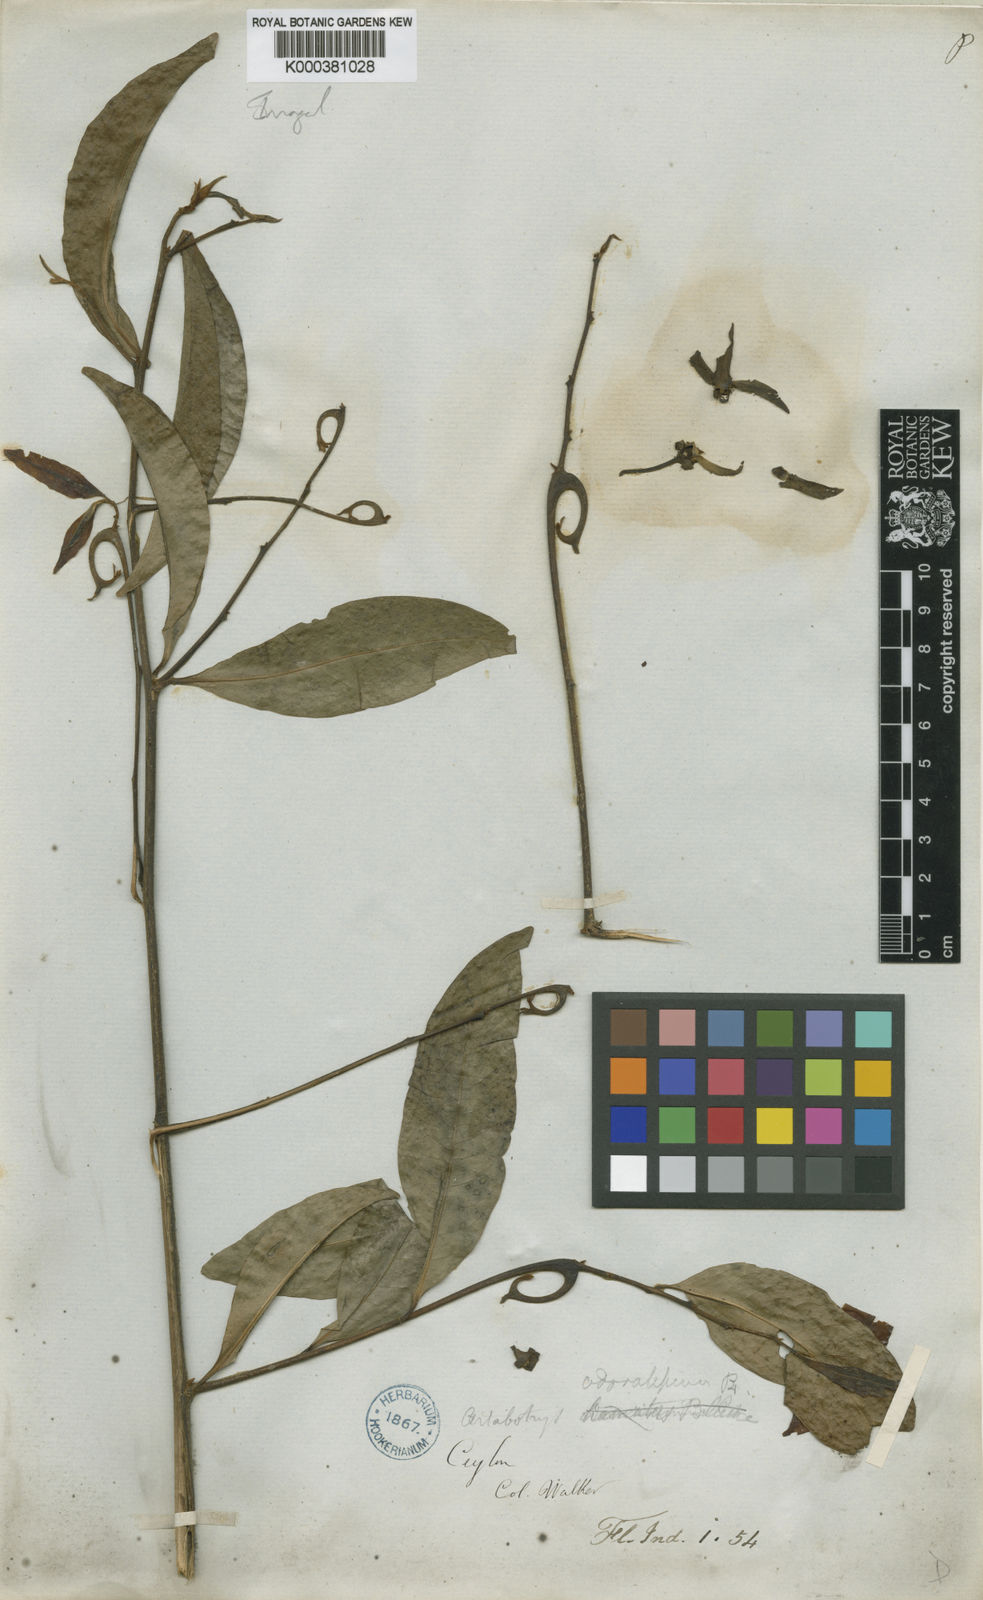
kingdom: Plantae
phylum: Tracheophyta
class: Magnoliopsida
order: Magnoliales
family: Annonaceae
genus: Artabotrys
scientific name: Artabotrys zeylanicus
